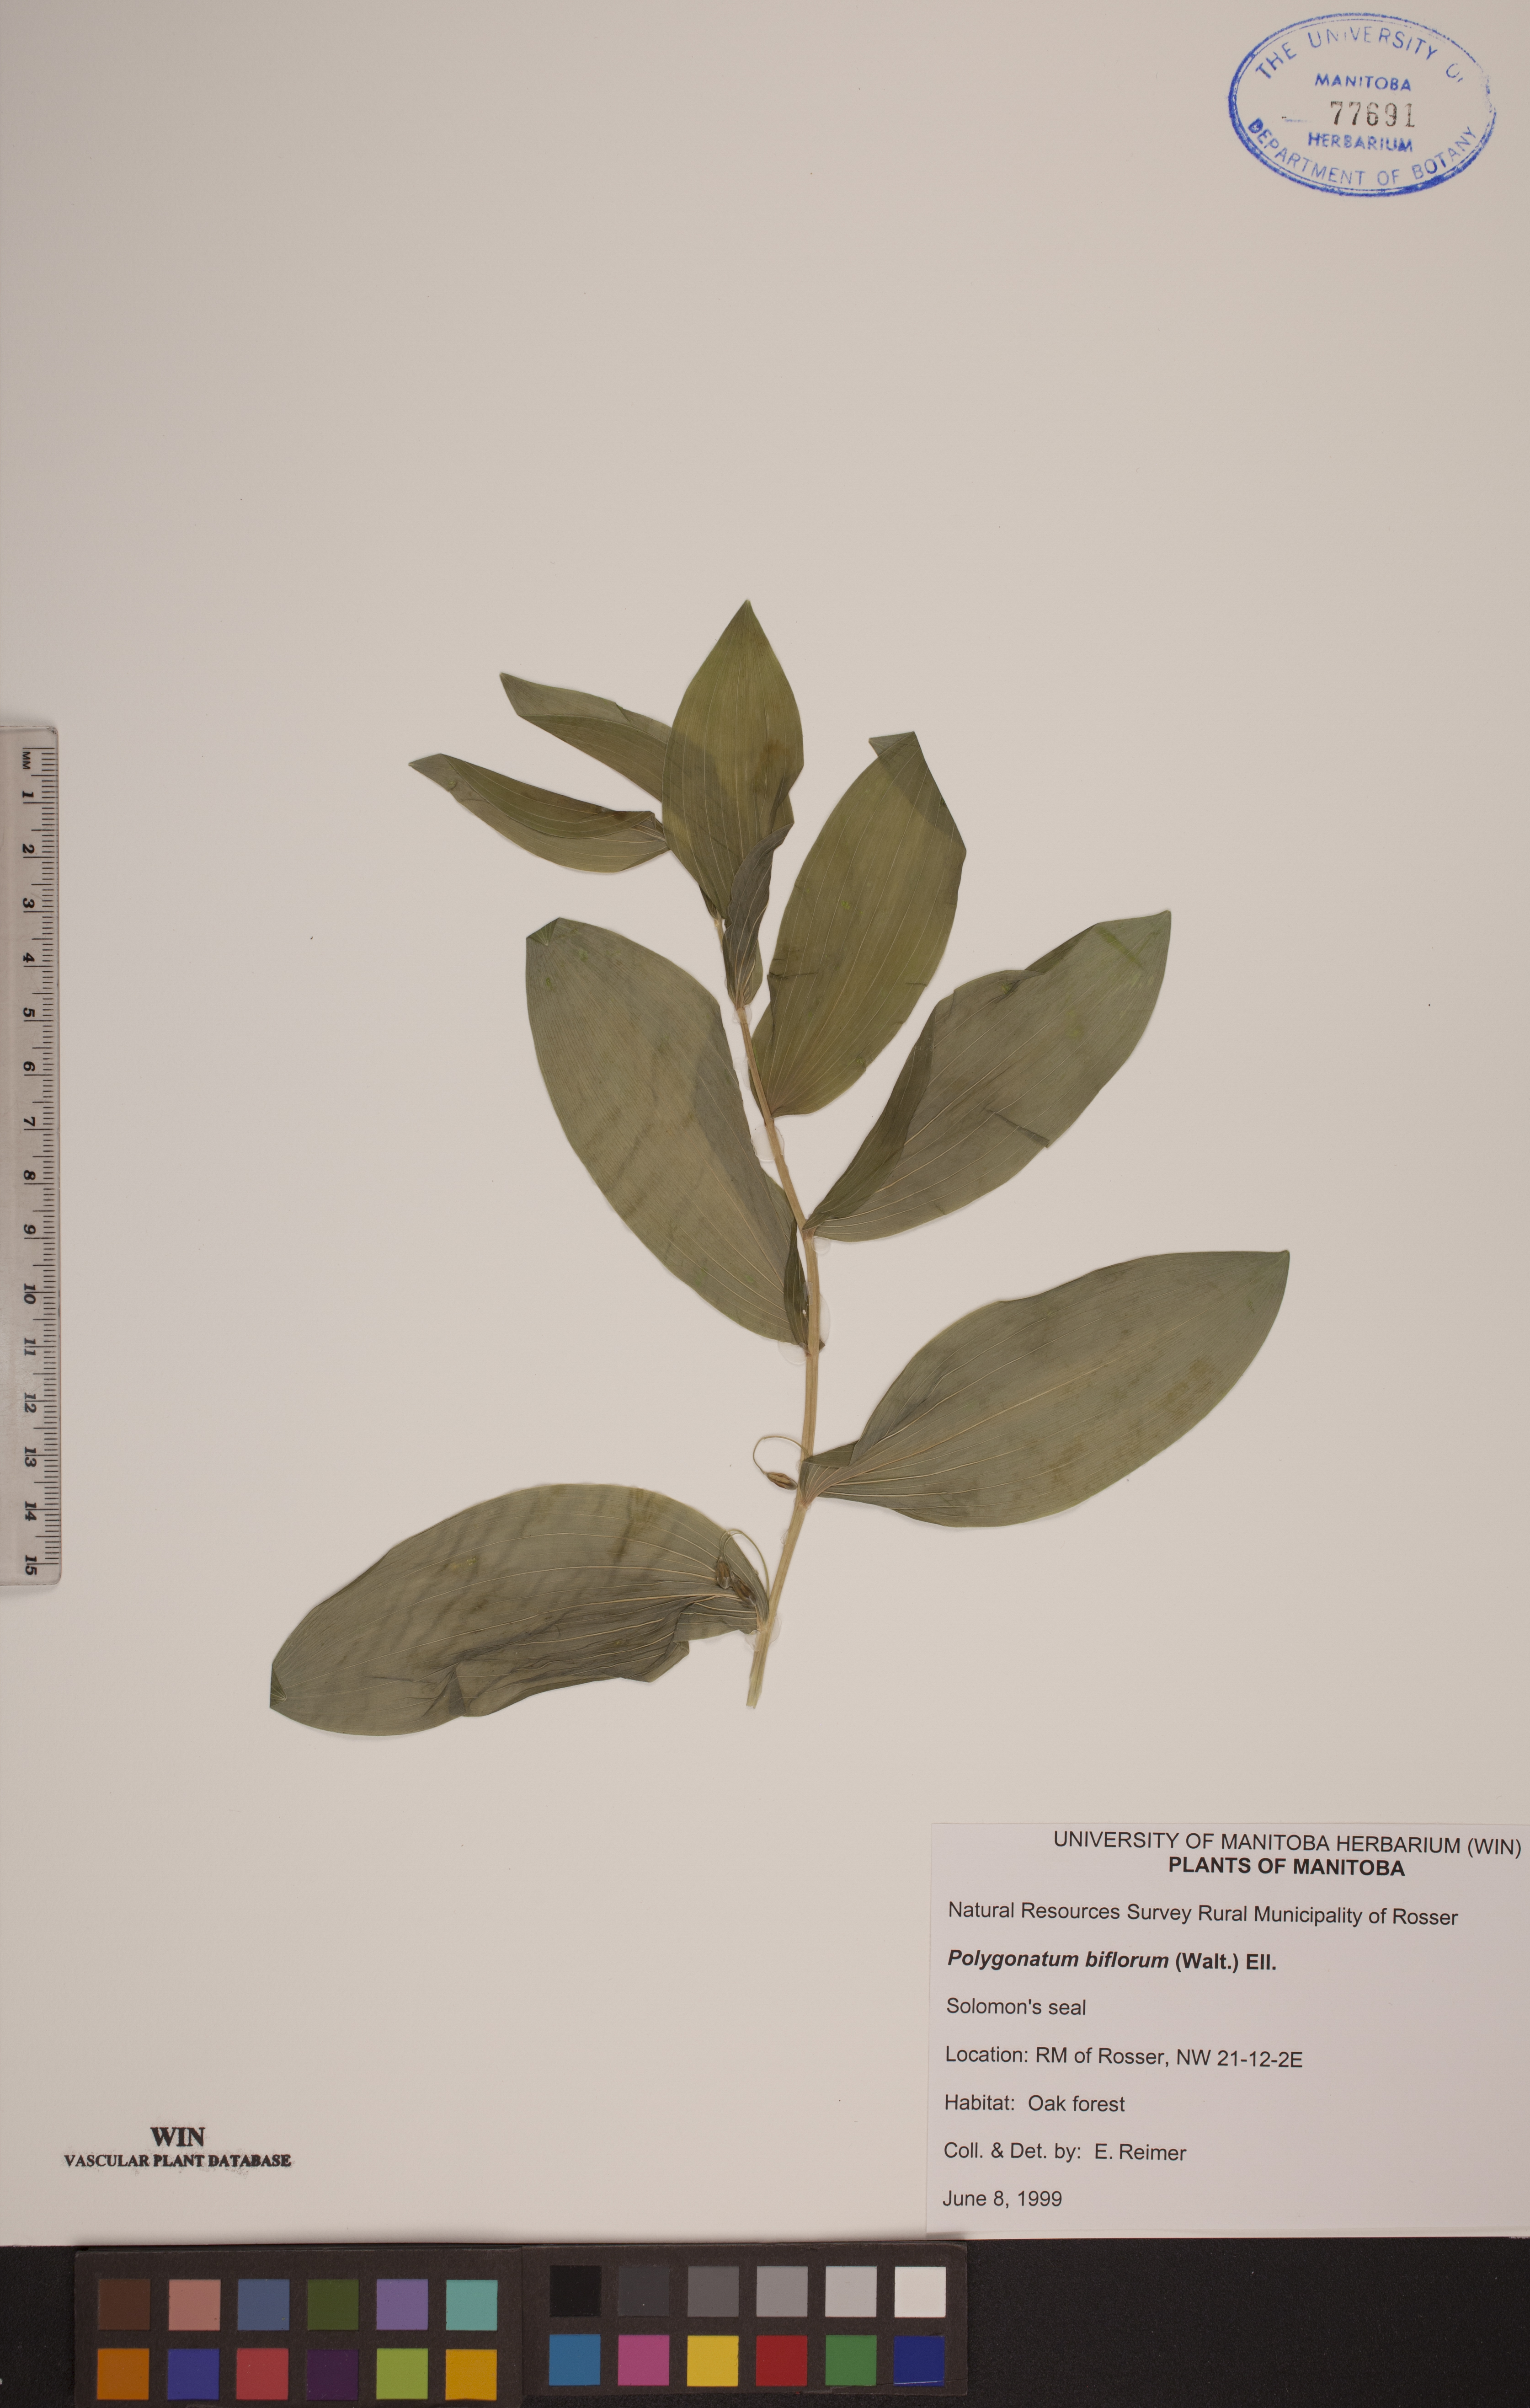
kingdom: Plantae
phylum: Tracheophyta
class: Liliopsida
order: Asparagales
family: Asparagaceae
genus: Polygonatum
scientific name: Polygonatum biflorum
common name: American solomon's-seal
